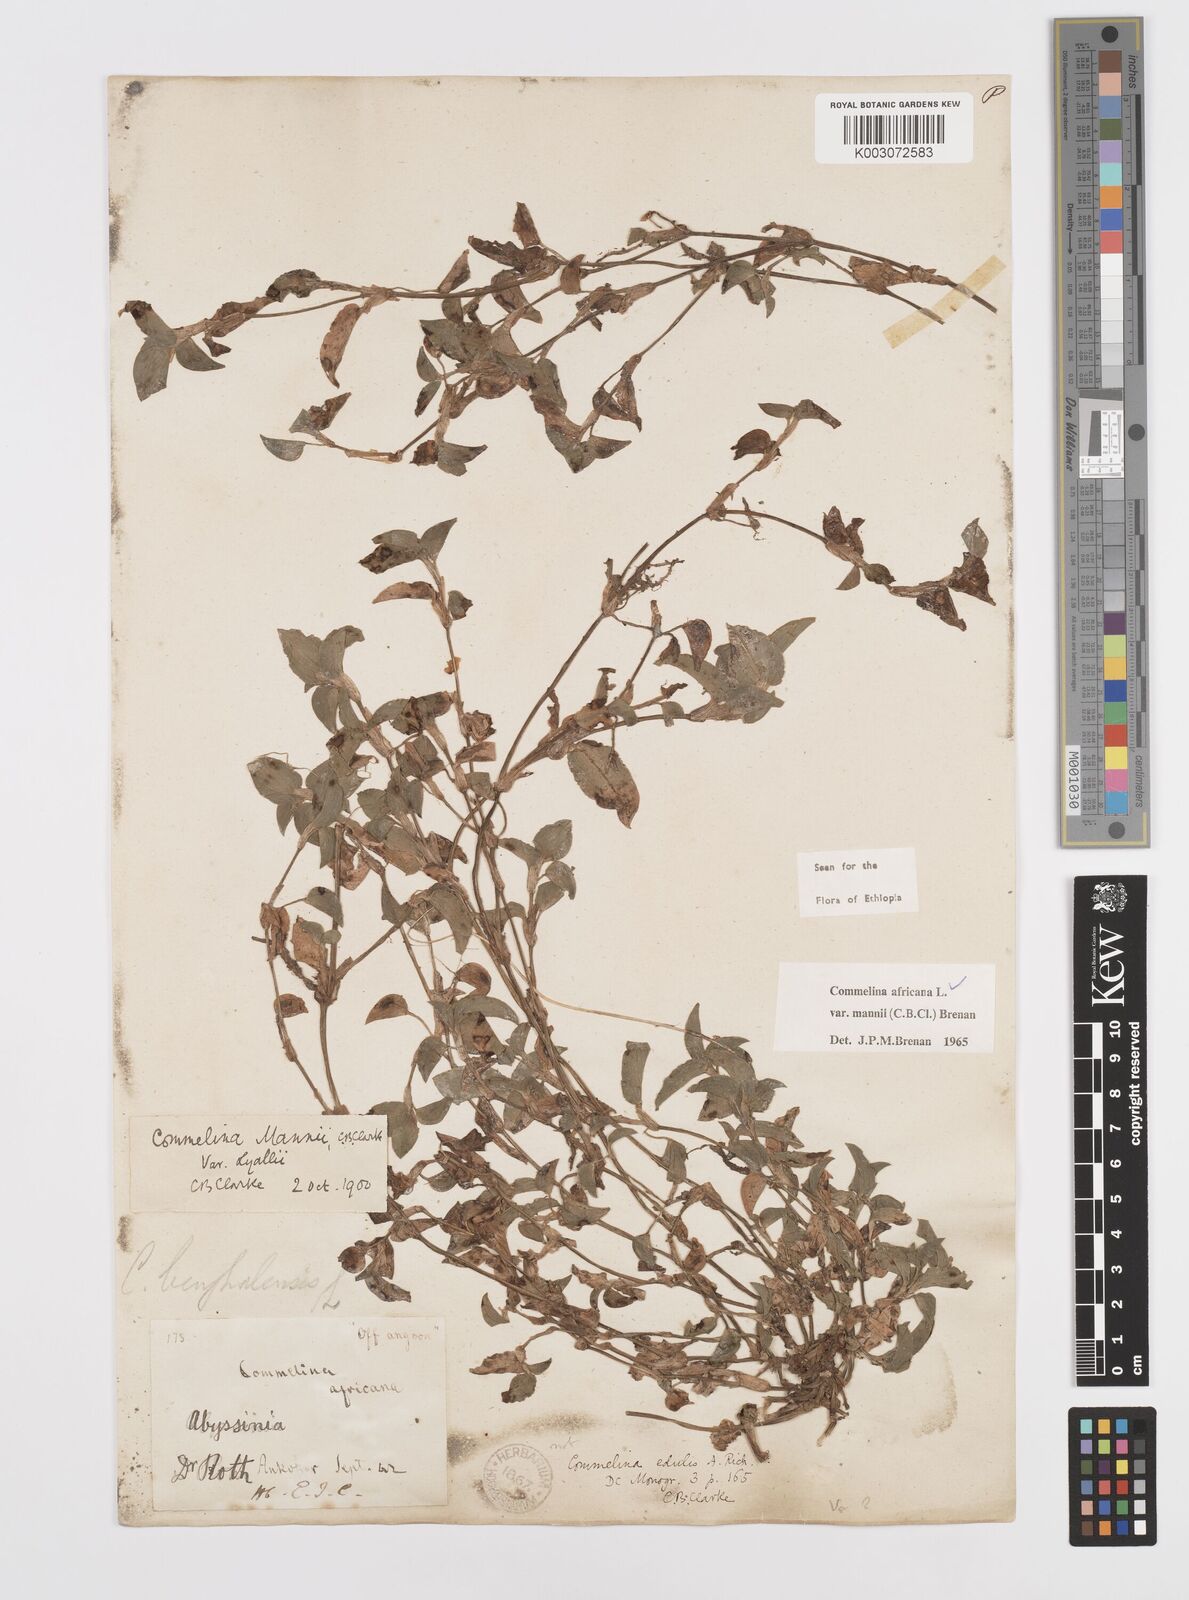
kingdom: Plantae
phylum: Tracheophyta
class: Liliopsida
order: Commelinales
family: Commelinaceae
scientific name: Commelinaceae
